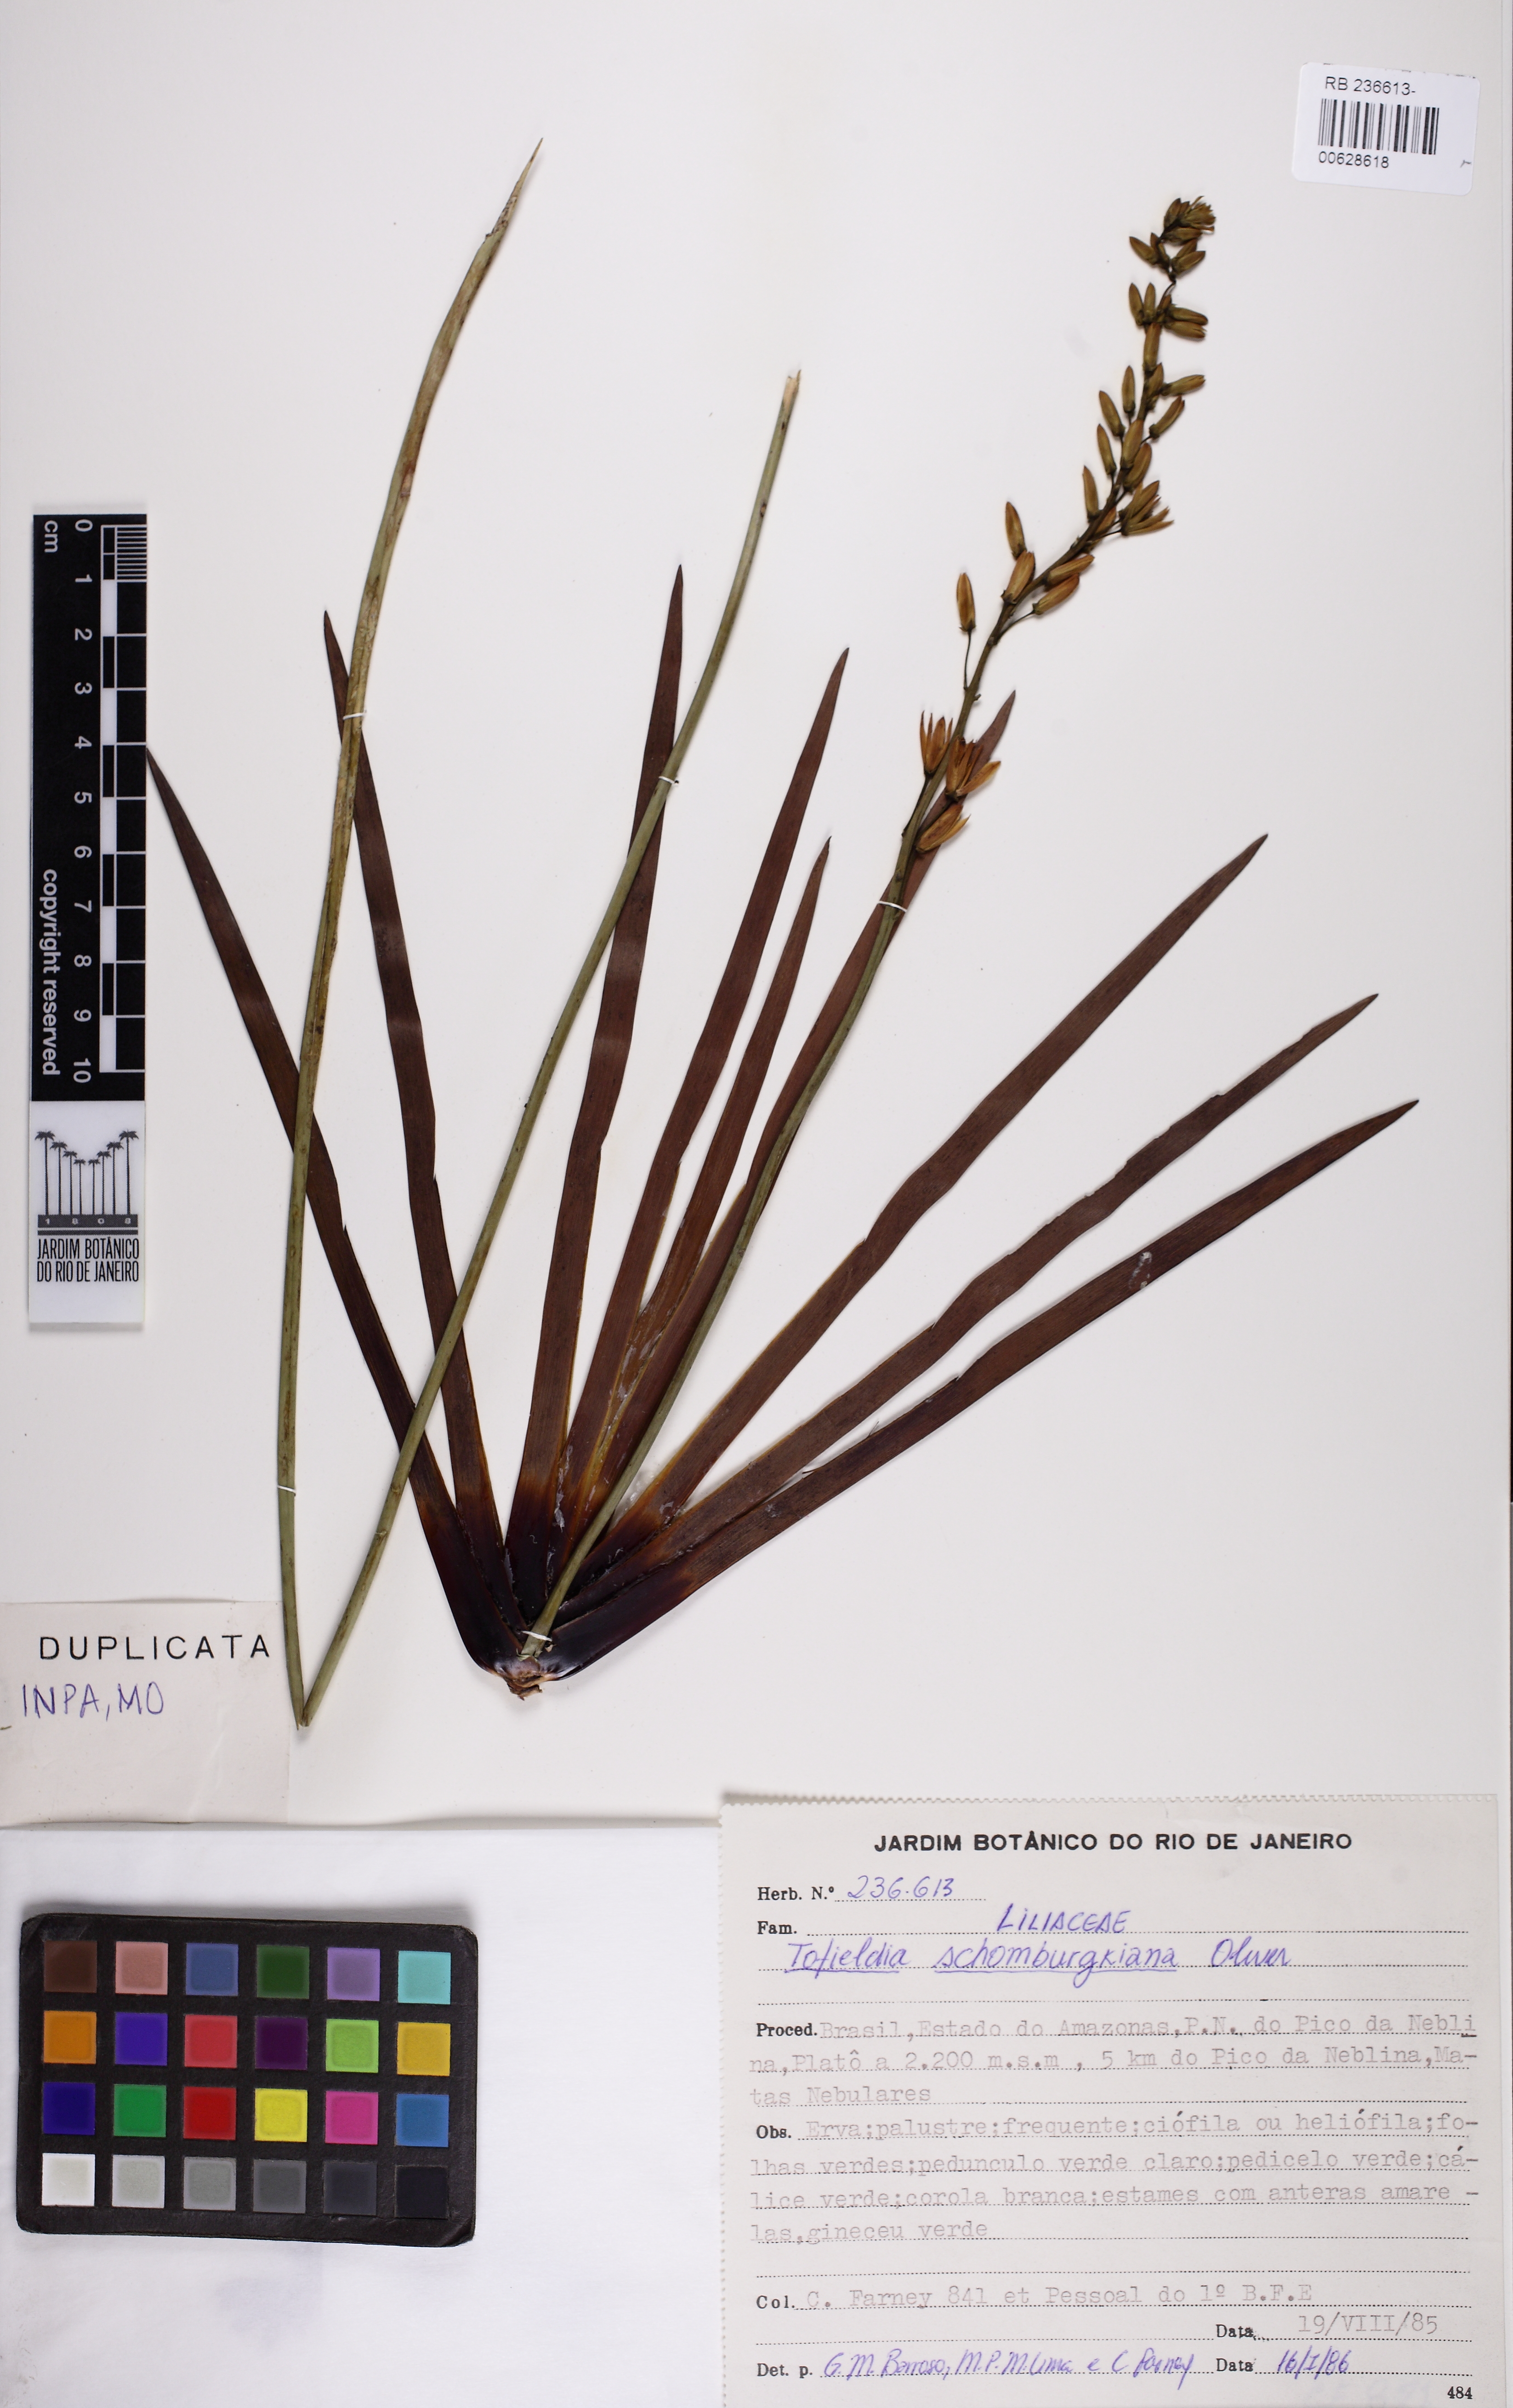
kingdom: Plantae
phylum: Tracheophyta
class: Liliopsida
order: Alismatales
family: Tofieldiaceae
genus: Harperocallis
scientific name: Harperocallis schomburgkiana
